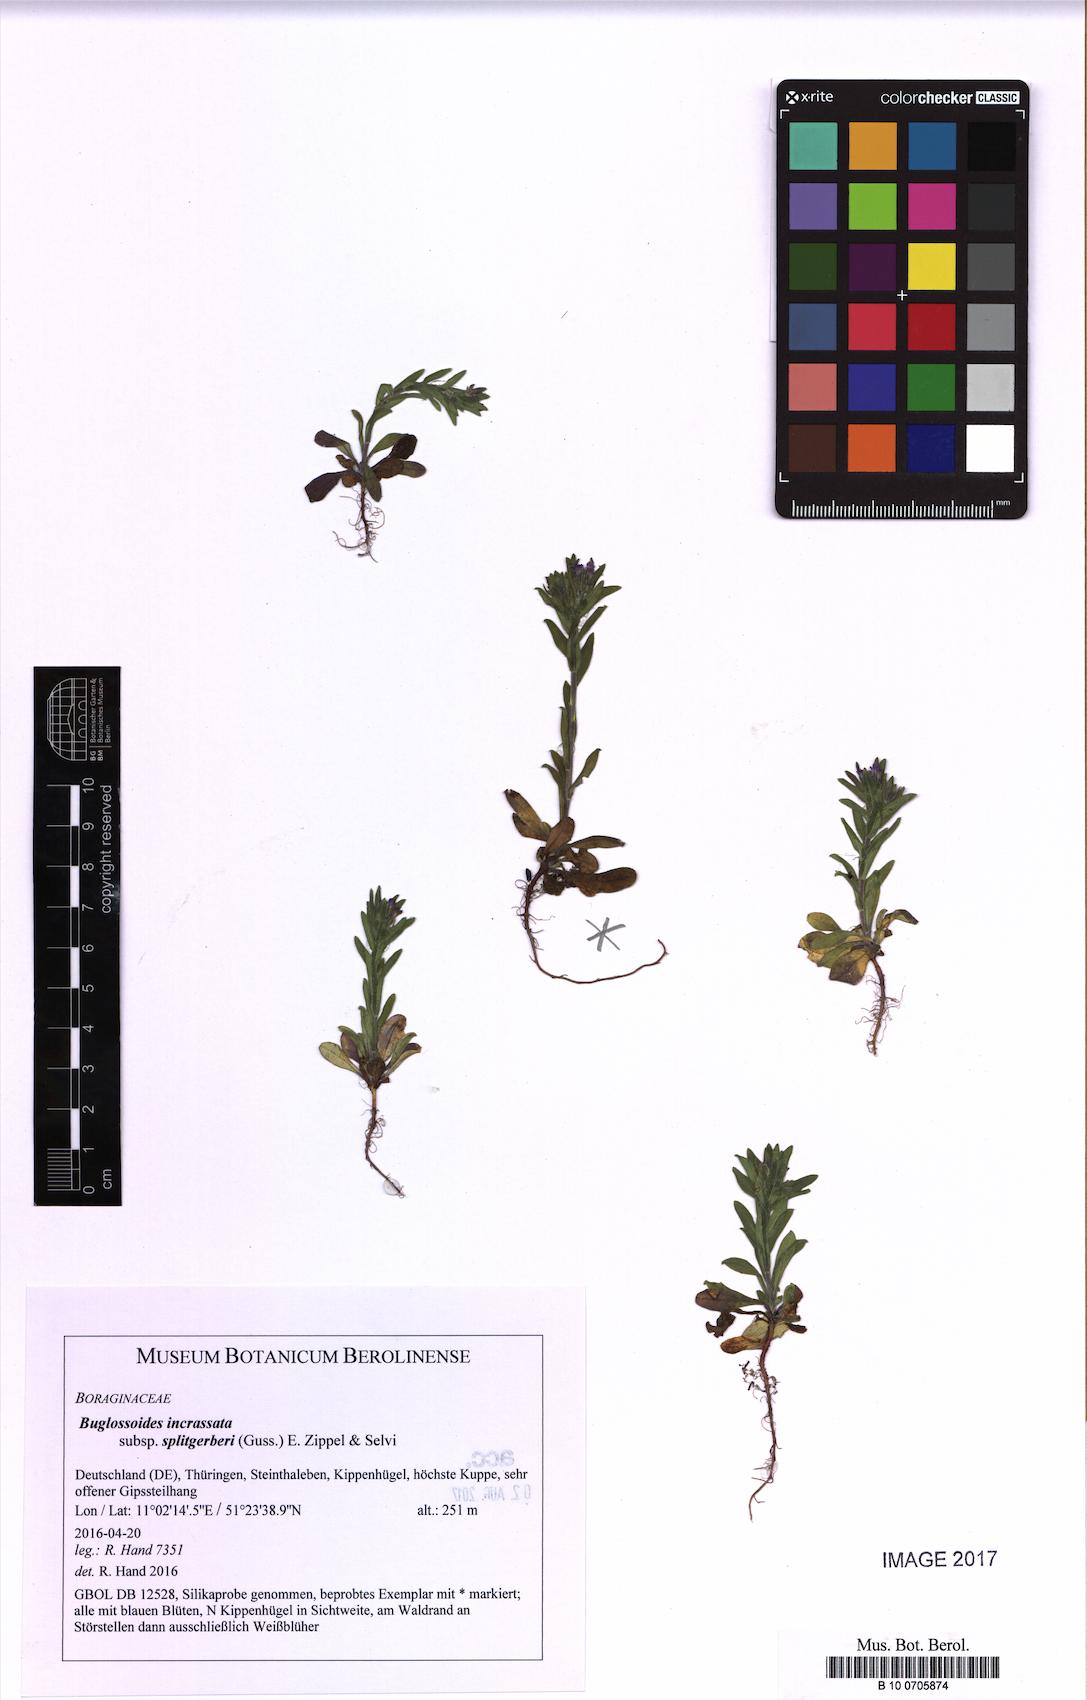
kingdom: Plantae
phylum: Tracheophyta
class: Magnoliopsida
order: Boraginales
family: Boraginaceae
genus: Buglossoides
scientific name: Buglossoides incrassata
